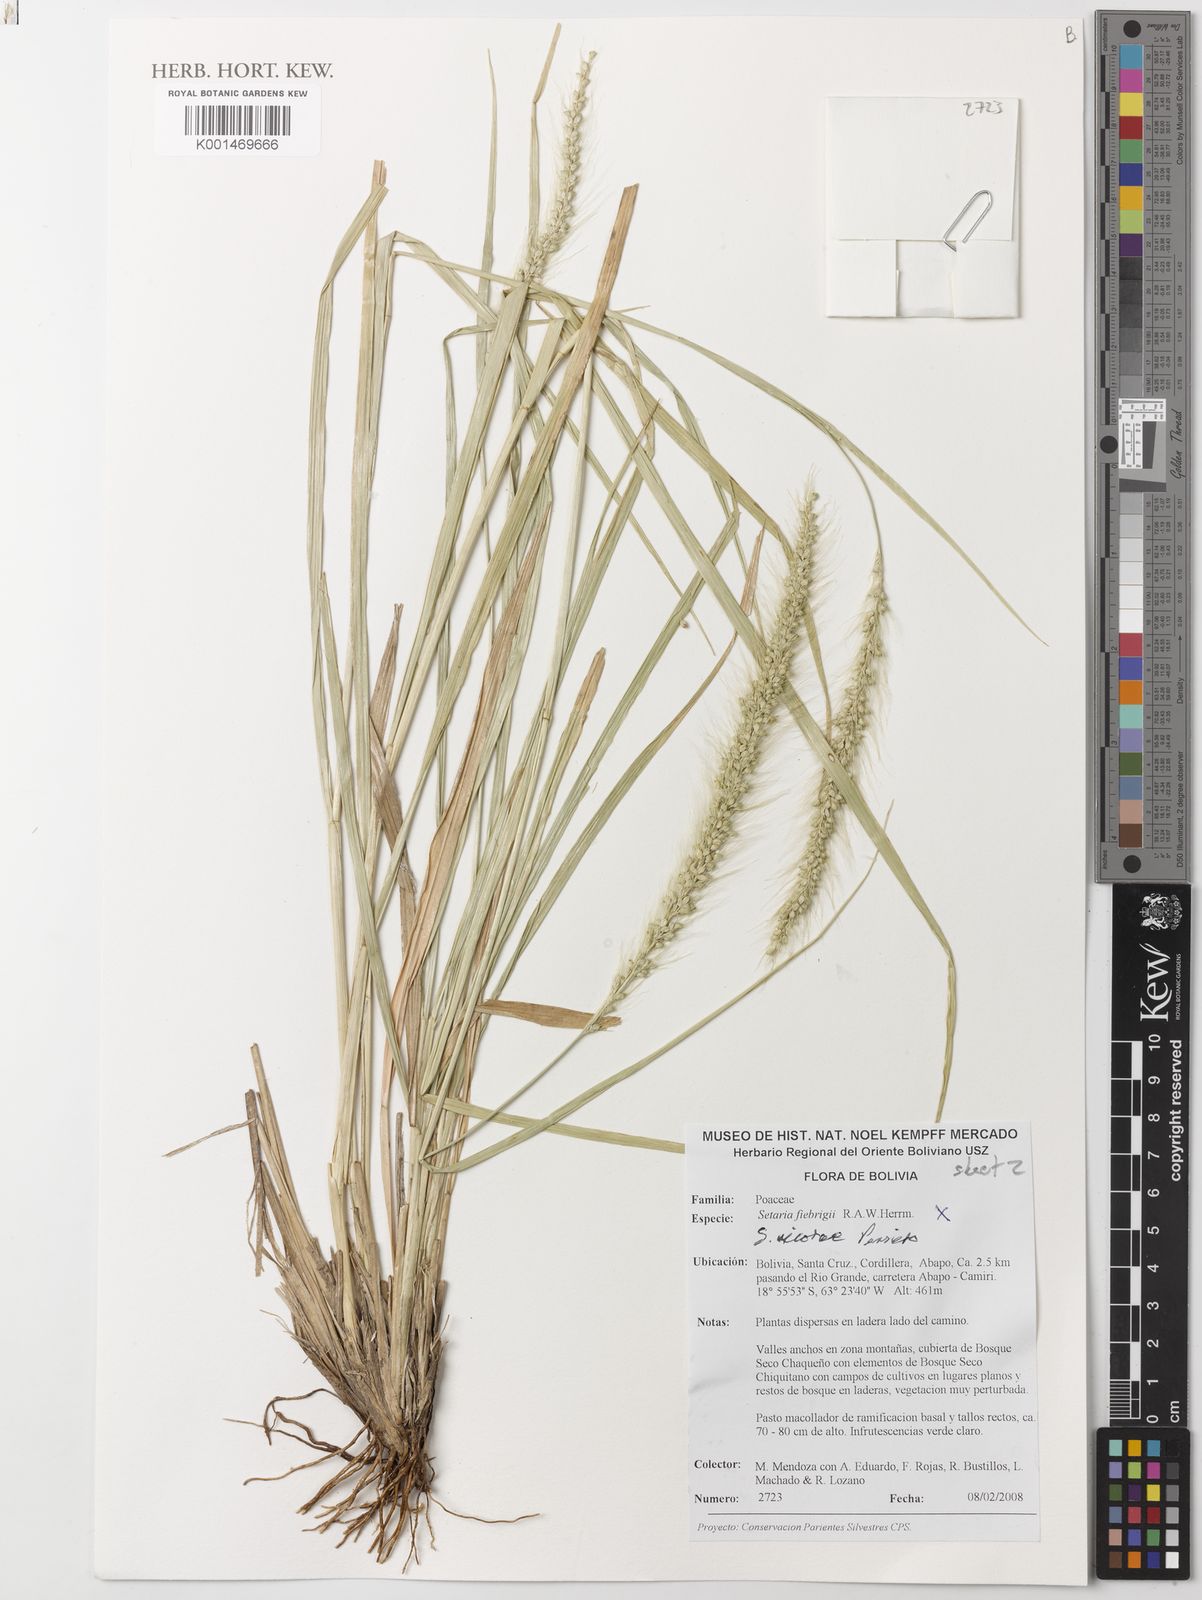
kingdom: Plantae
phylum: Tracheophyta
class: Liliopsida
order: Poales
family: Poaceae
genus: Setaria
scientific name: Setaria nicorae
